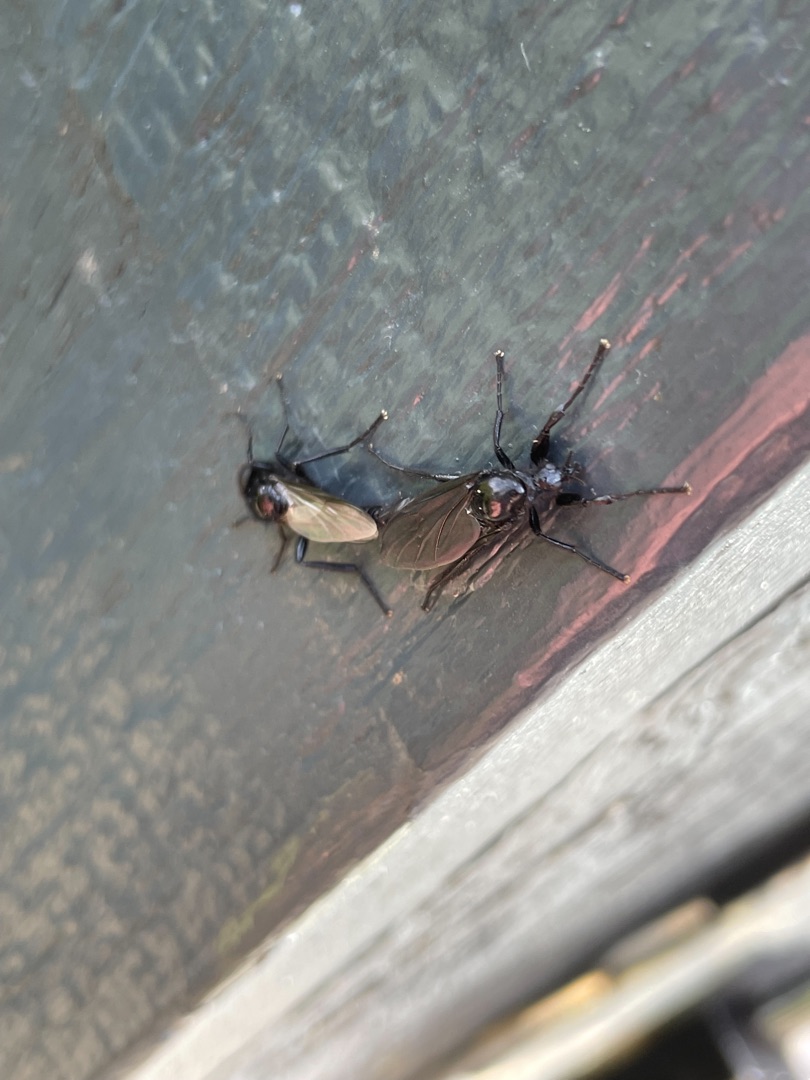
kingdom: Animalia
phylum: Arthropoda
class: Insecta
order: Diptera
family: Bibionidae
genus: Bibio
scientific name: Bibio marci
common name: Skovhårmyg
